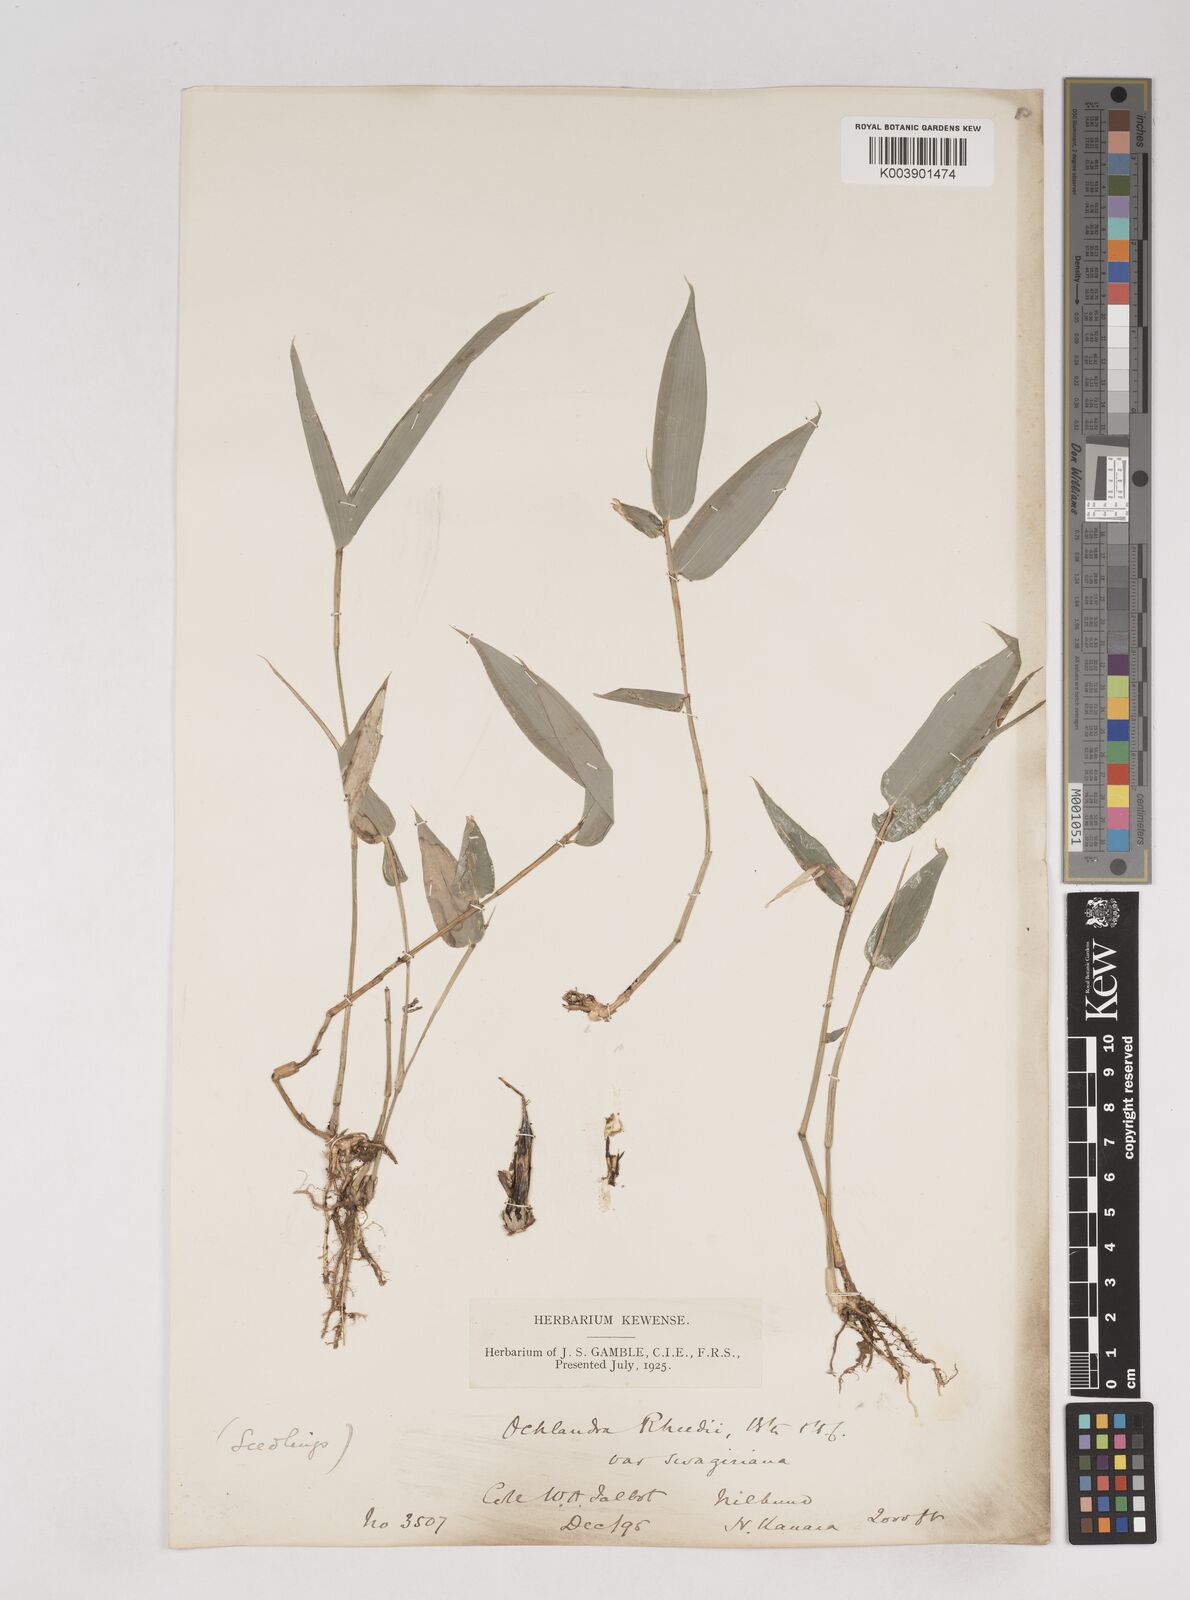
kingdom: Plantae
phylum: Tracheophyta
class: Liliopsida
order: Poales
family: Poaceae
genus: Ochlandra
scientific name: Ochlandra scriptoria
